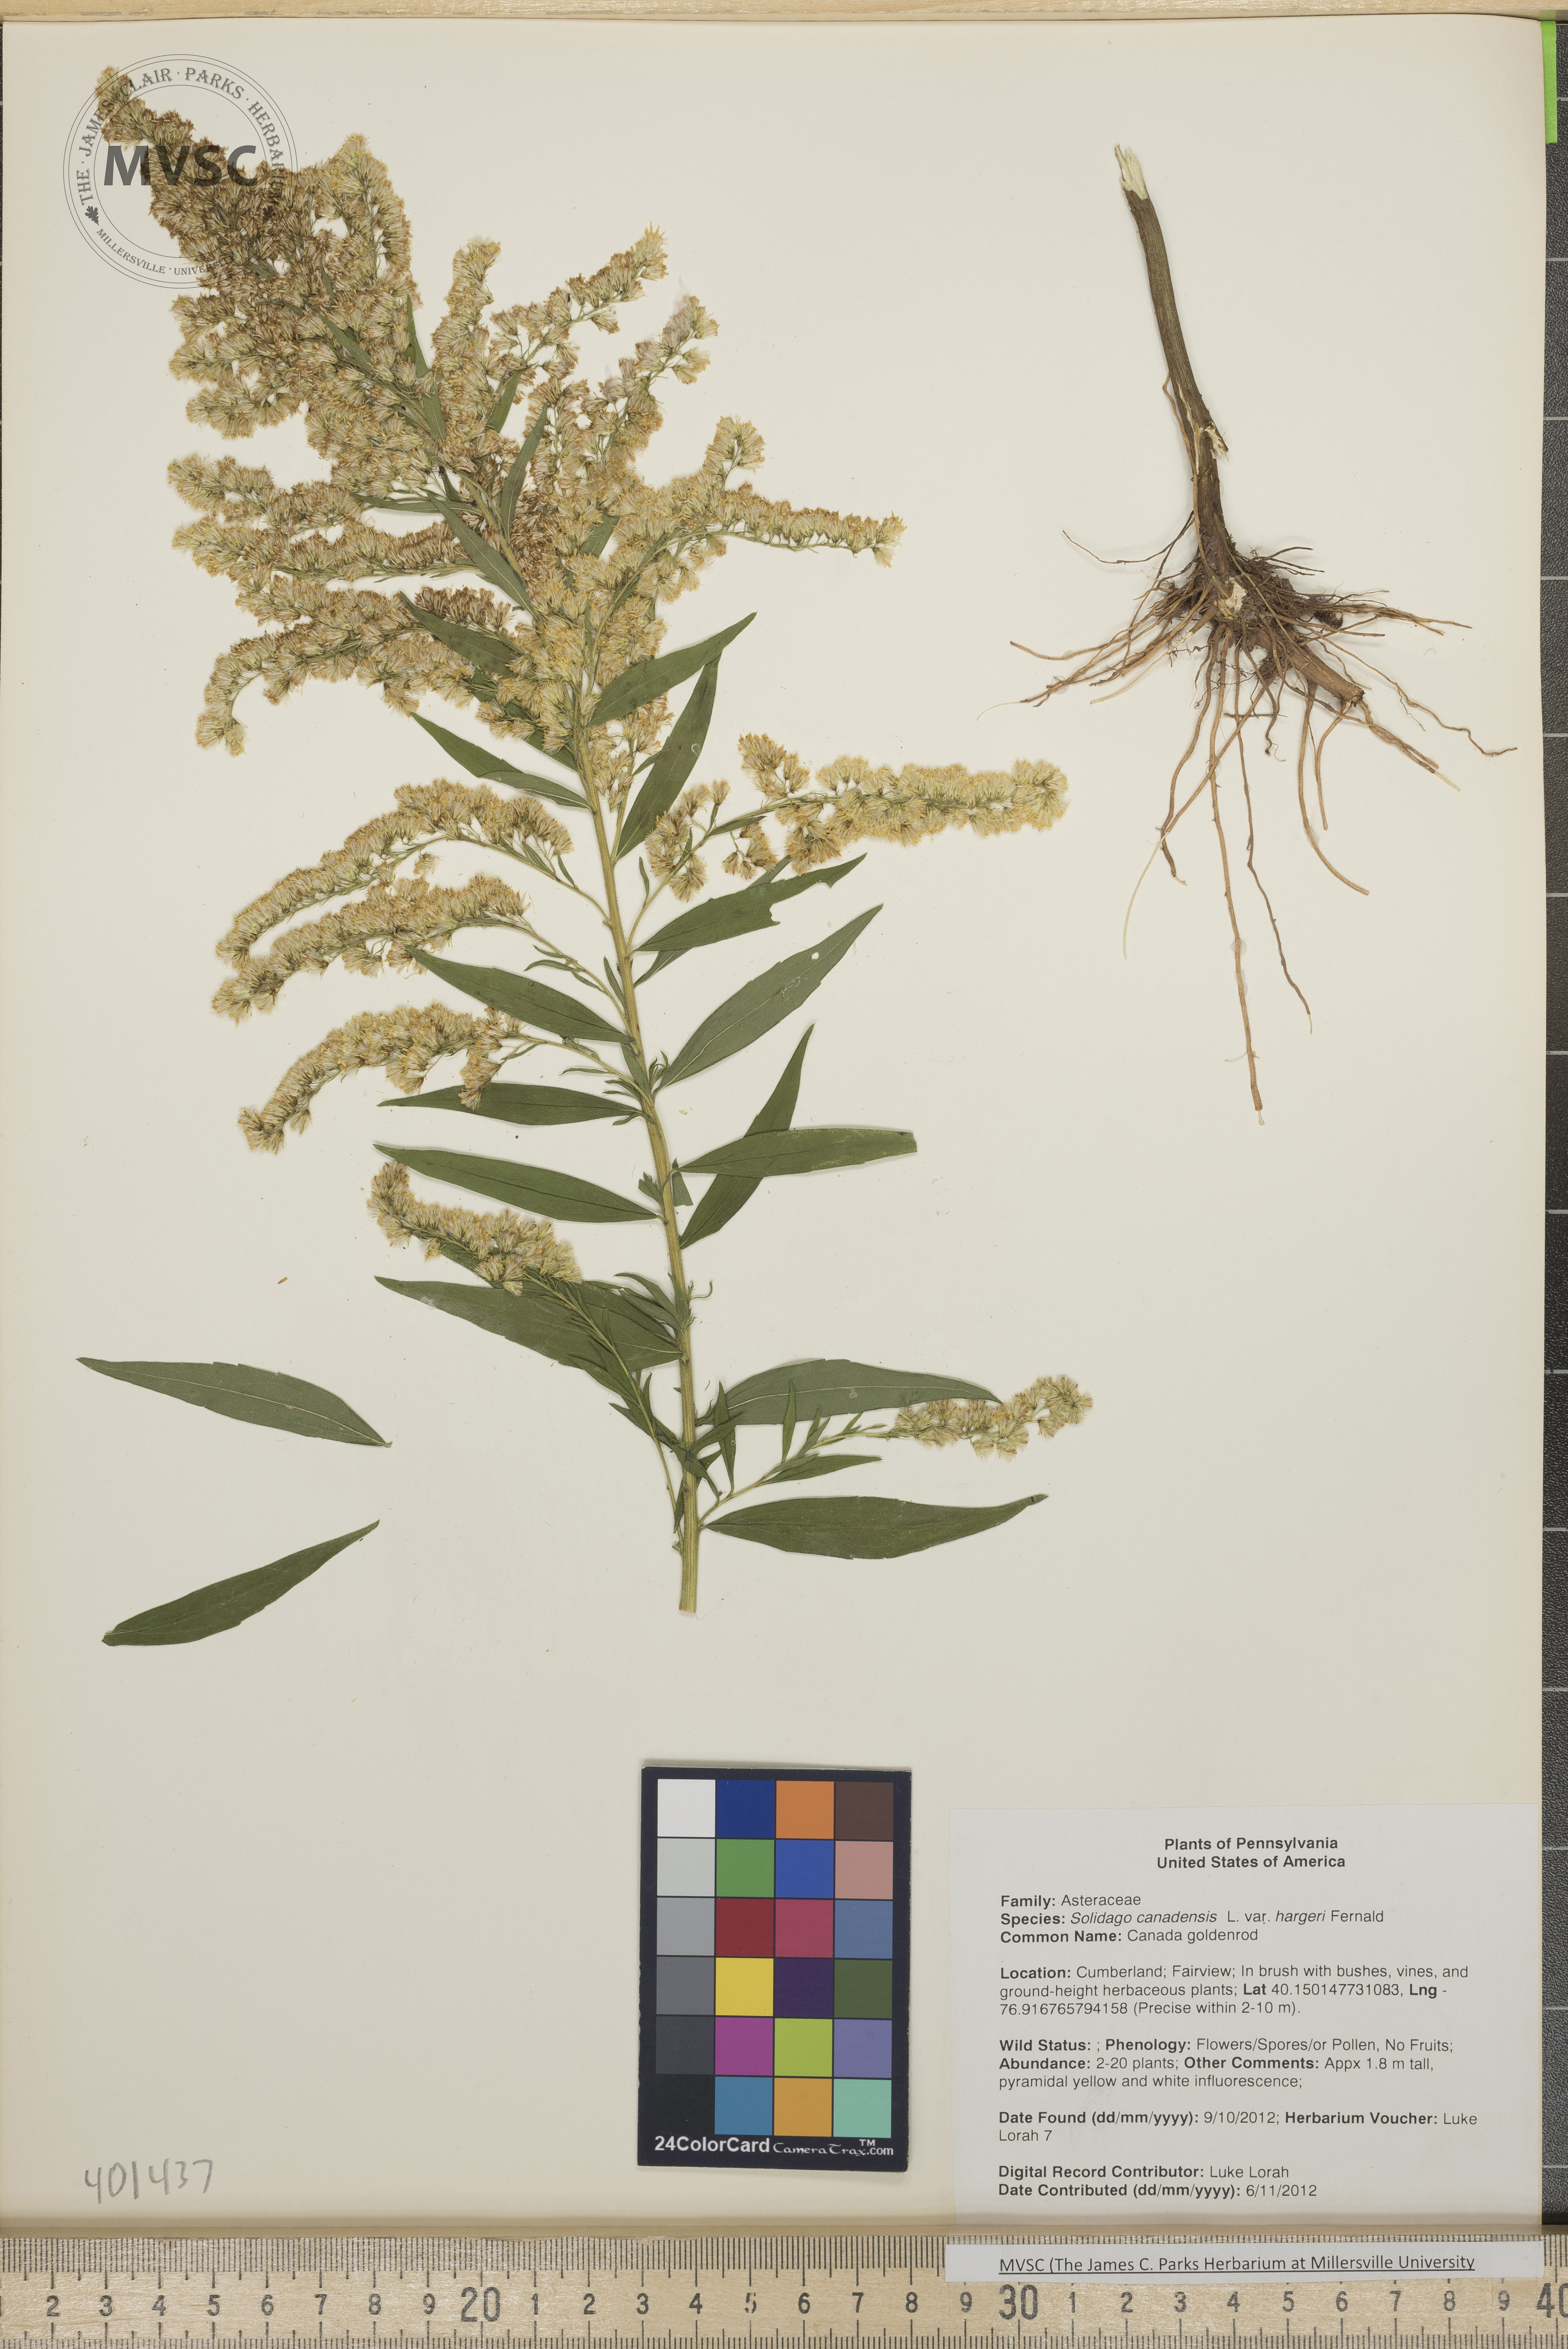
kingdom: Plantae
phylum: Tracheophyta
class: Magnoliopsida
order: Asterales
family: Asteraceae
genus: Solidago
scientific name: Solidago altissima
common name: Late goldenrod
